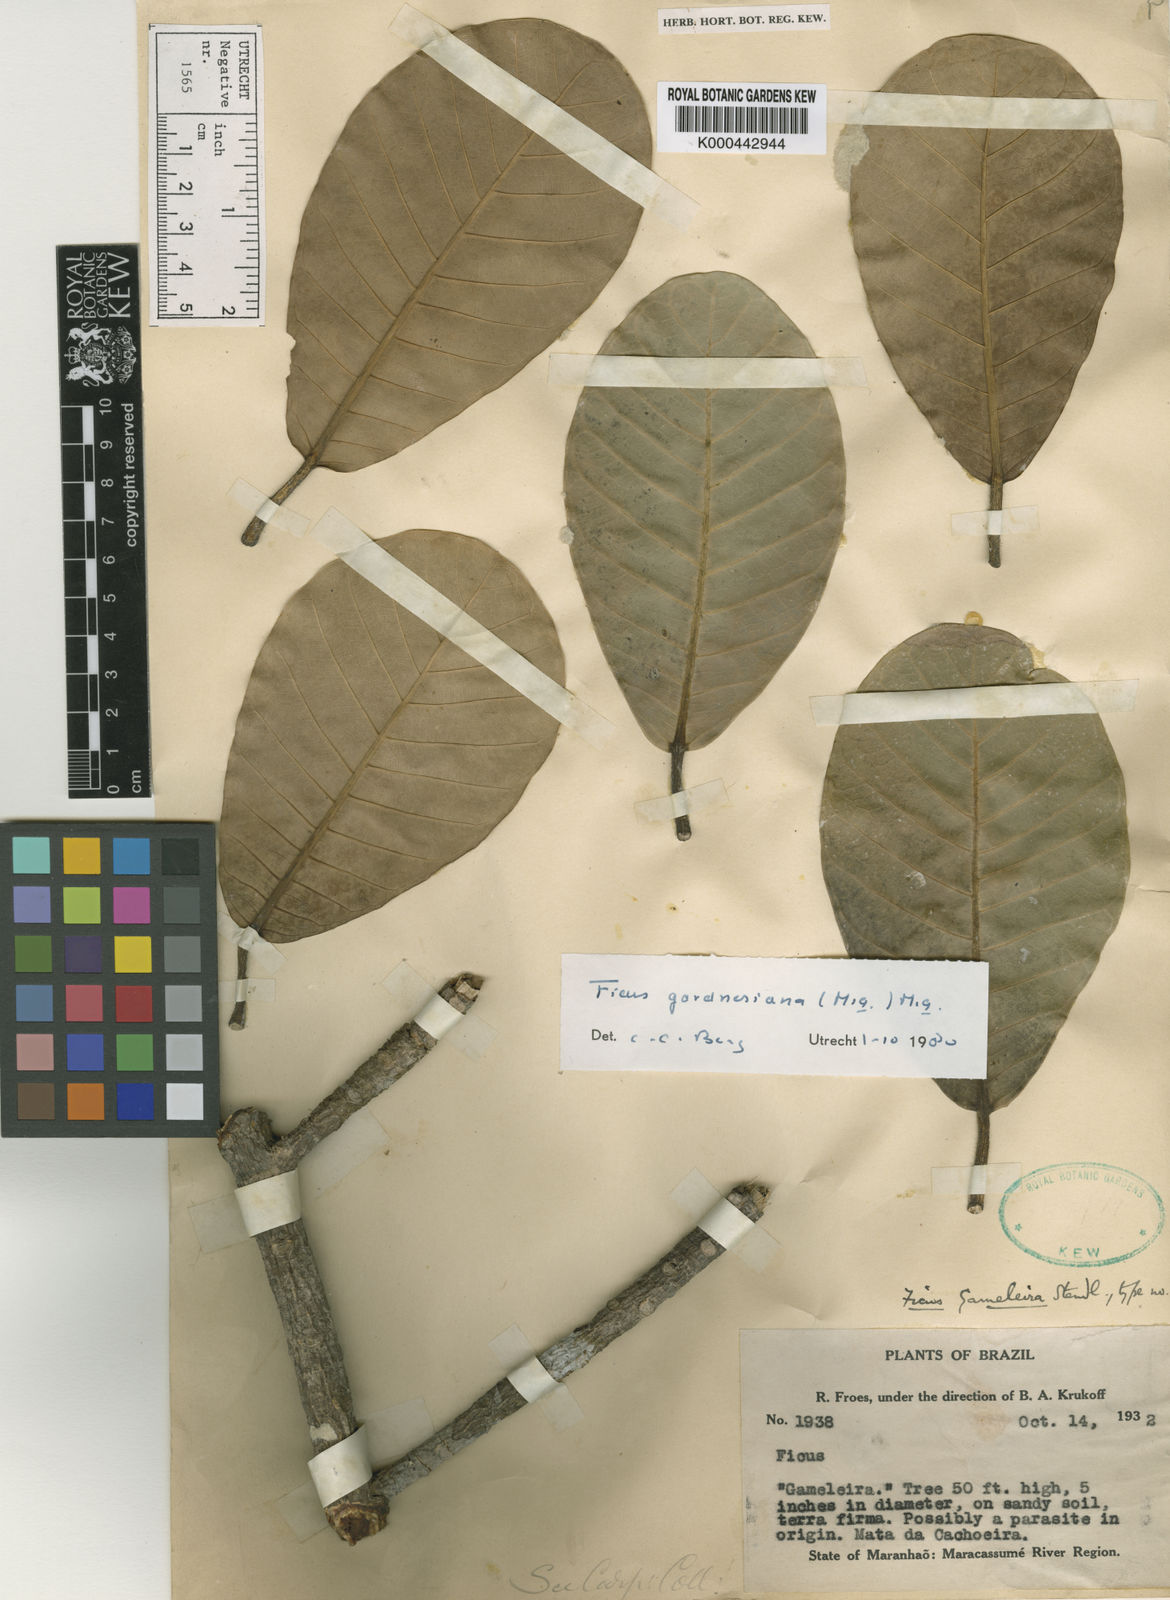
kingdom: Plantae
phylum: Tracheophyta
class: Magnoliopsida
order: Rosales
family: Moraceae
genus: Ficus
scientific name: Ficus obtusifolia
